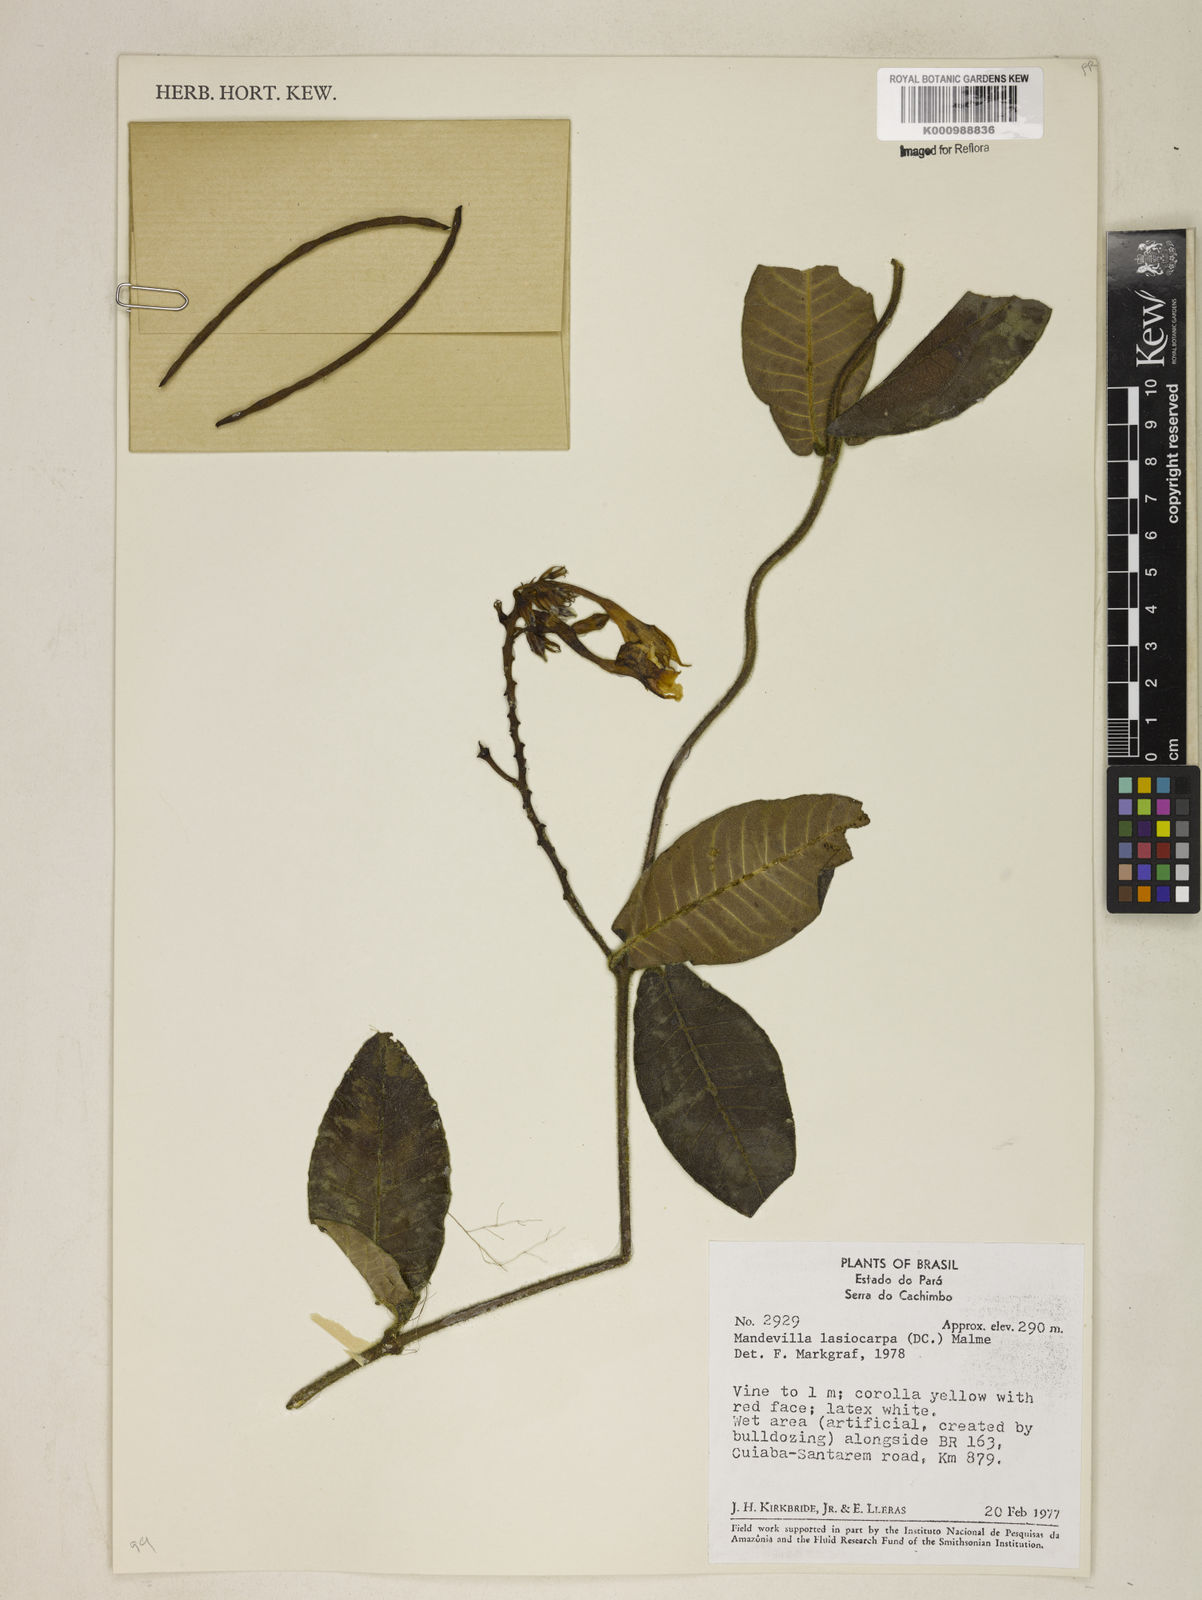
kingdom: Plantae
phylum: Tracheophyta
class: Magnoliopsida
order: Gentianales
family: Apocynaceae
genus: Mandevilla
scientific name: Mandevilla hirsuta
